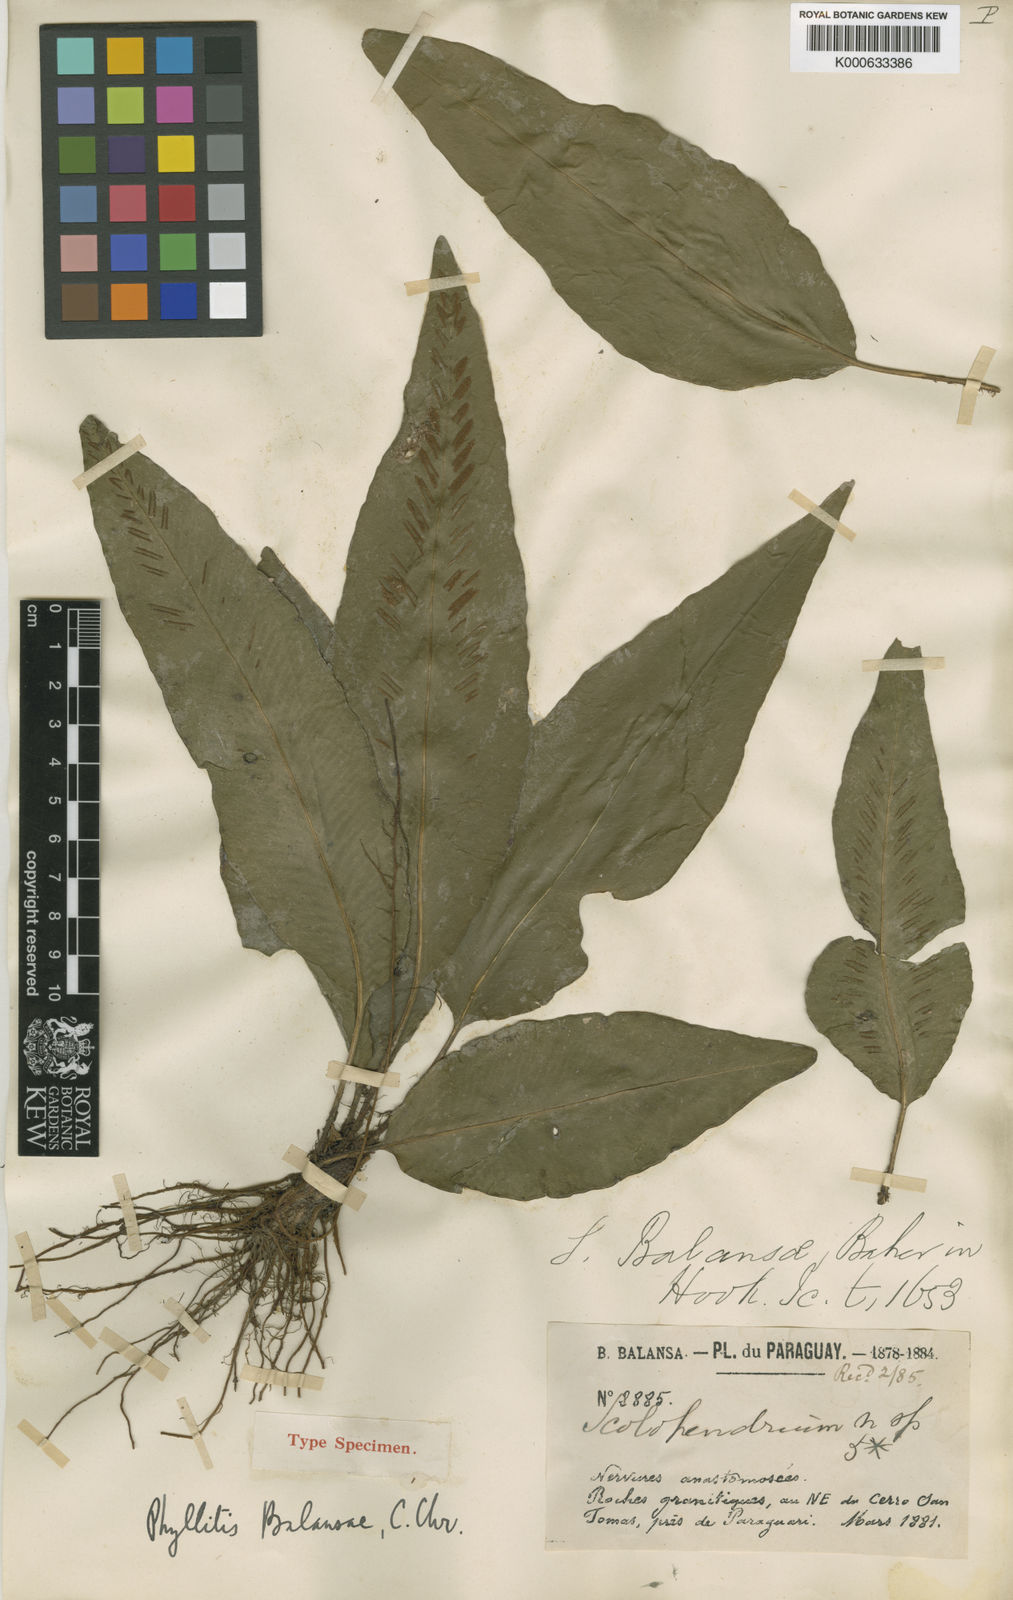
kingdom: Plantae
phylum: Tracheophyta
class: Polypodiopsida
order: Polypodiales
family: Aspleniaceae
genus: Asplenium
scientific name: Asplenium balansae
